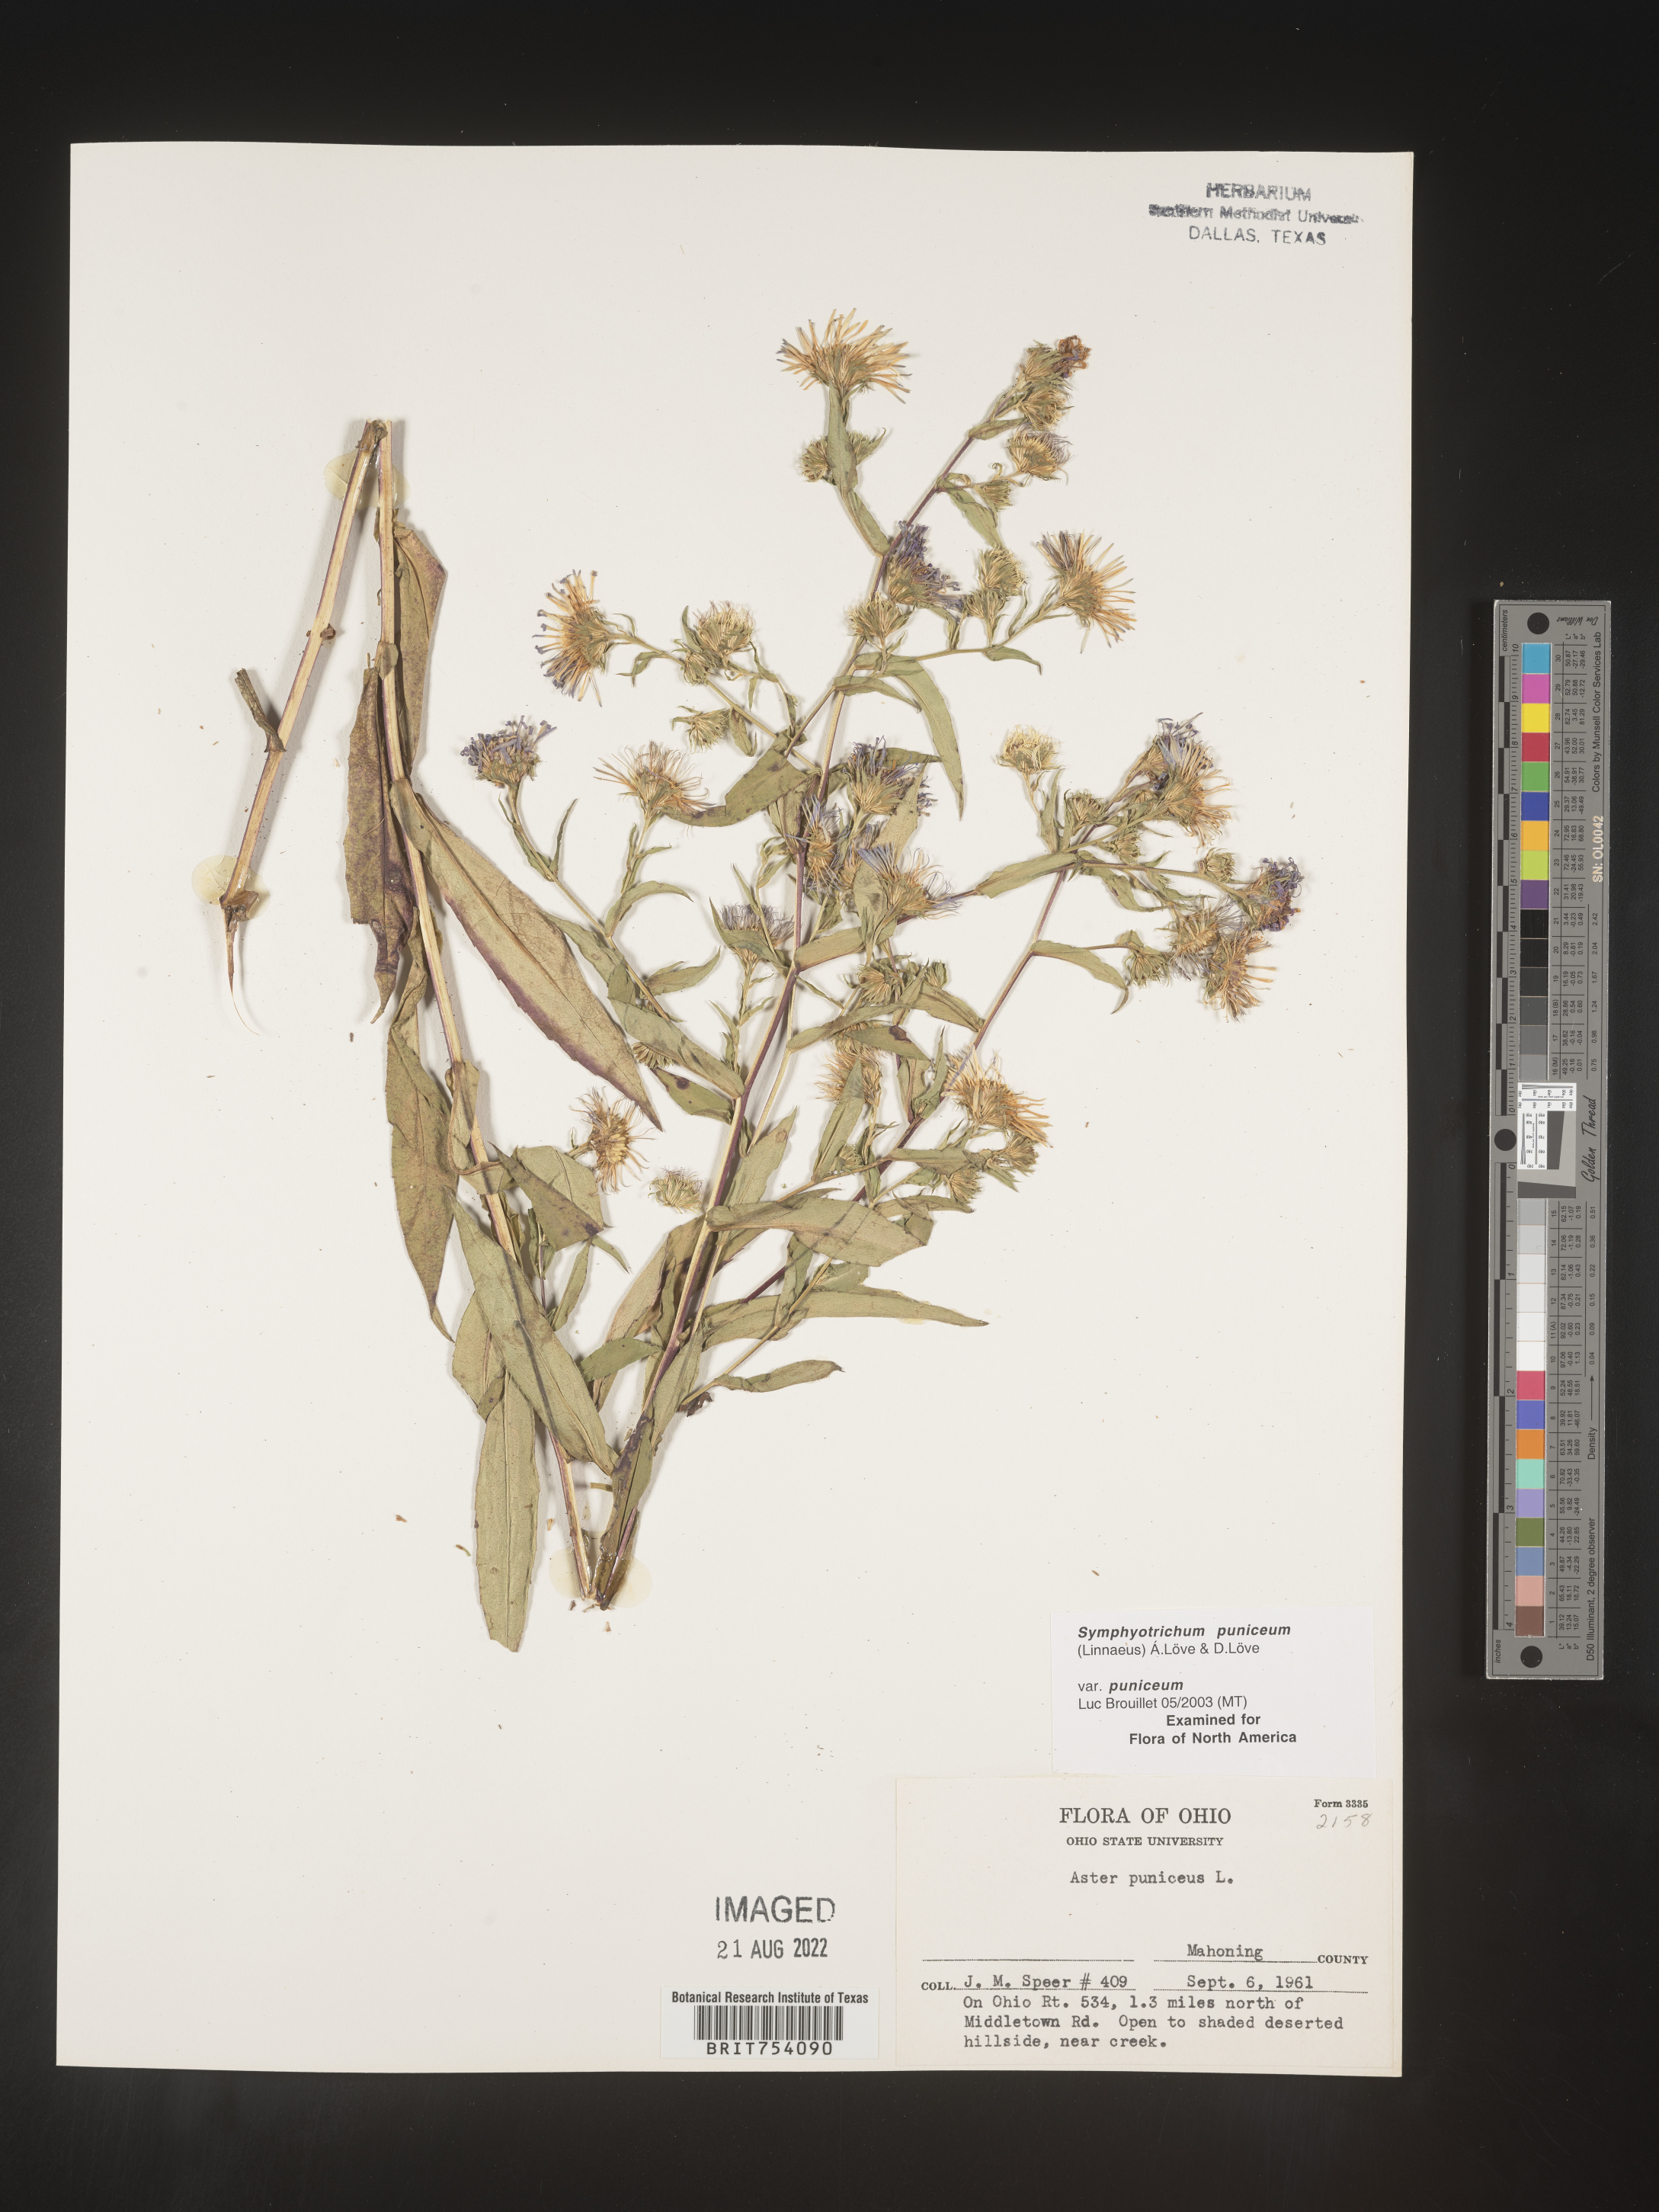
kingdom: Plantae
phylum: Tracheophyta
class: Magnoliopsida
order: Asterales
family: Asteraceae
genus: Symphyotrichum
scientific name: Symphyotrichum puniceum
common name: Bog aster
